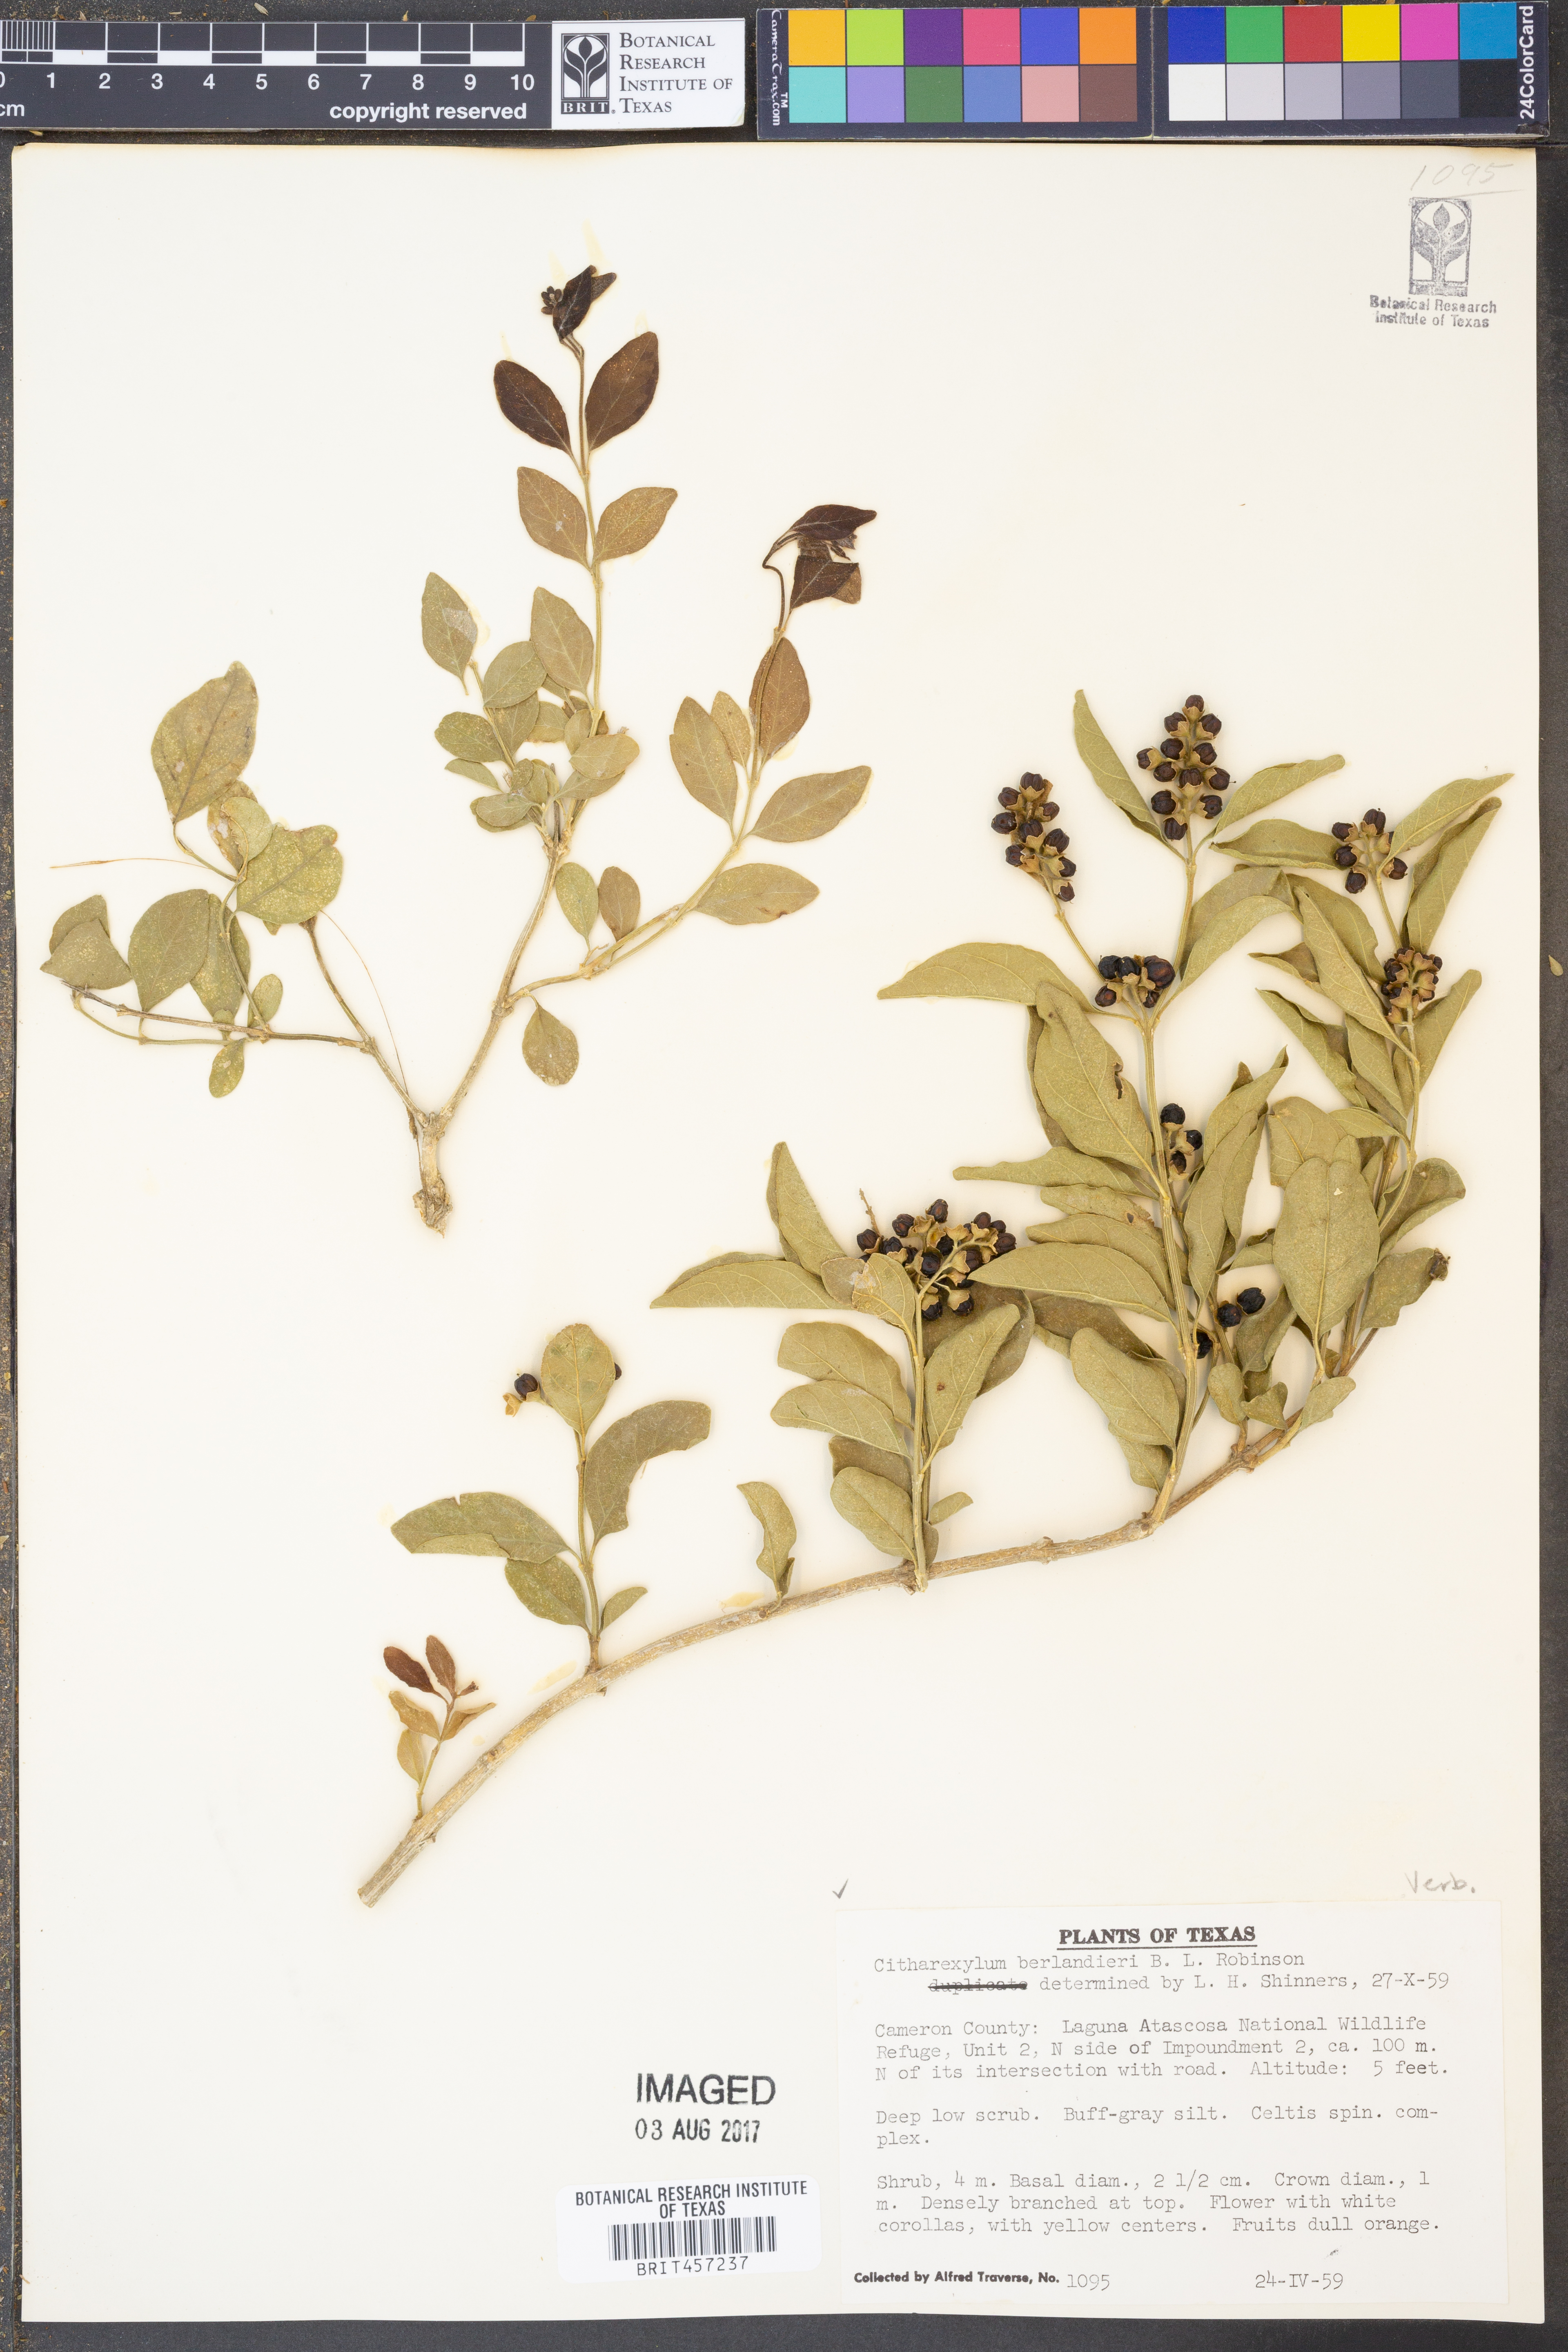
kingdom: Plantae
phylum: Tracheophyta
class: Magnoliopsida
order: Lamiales
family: Verbenaceae
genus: Citharexylum
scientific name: Citharexylum berlandieri
